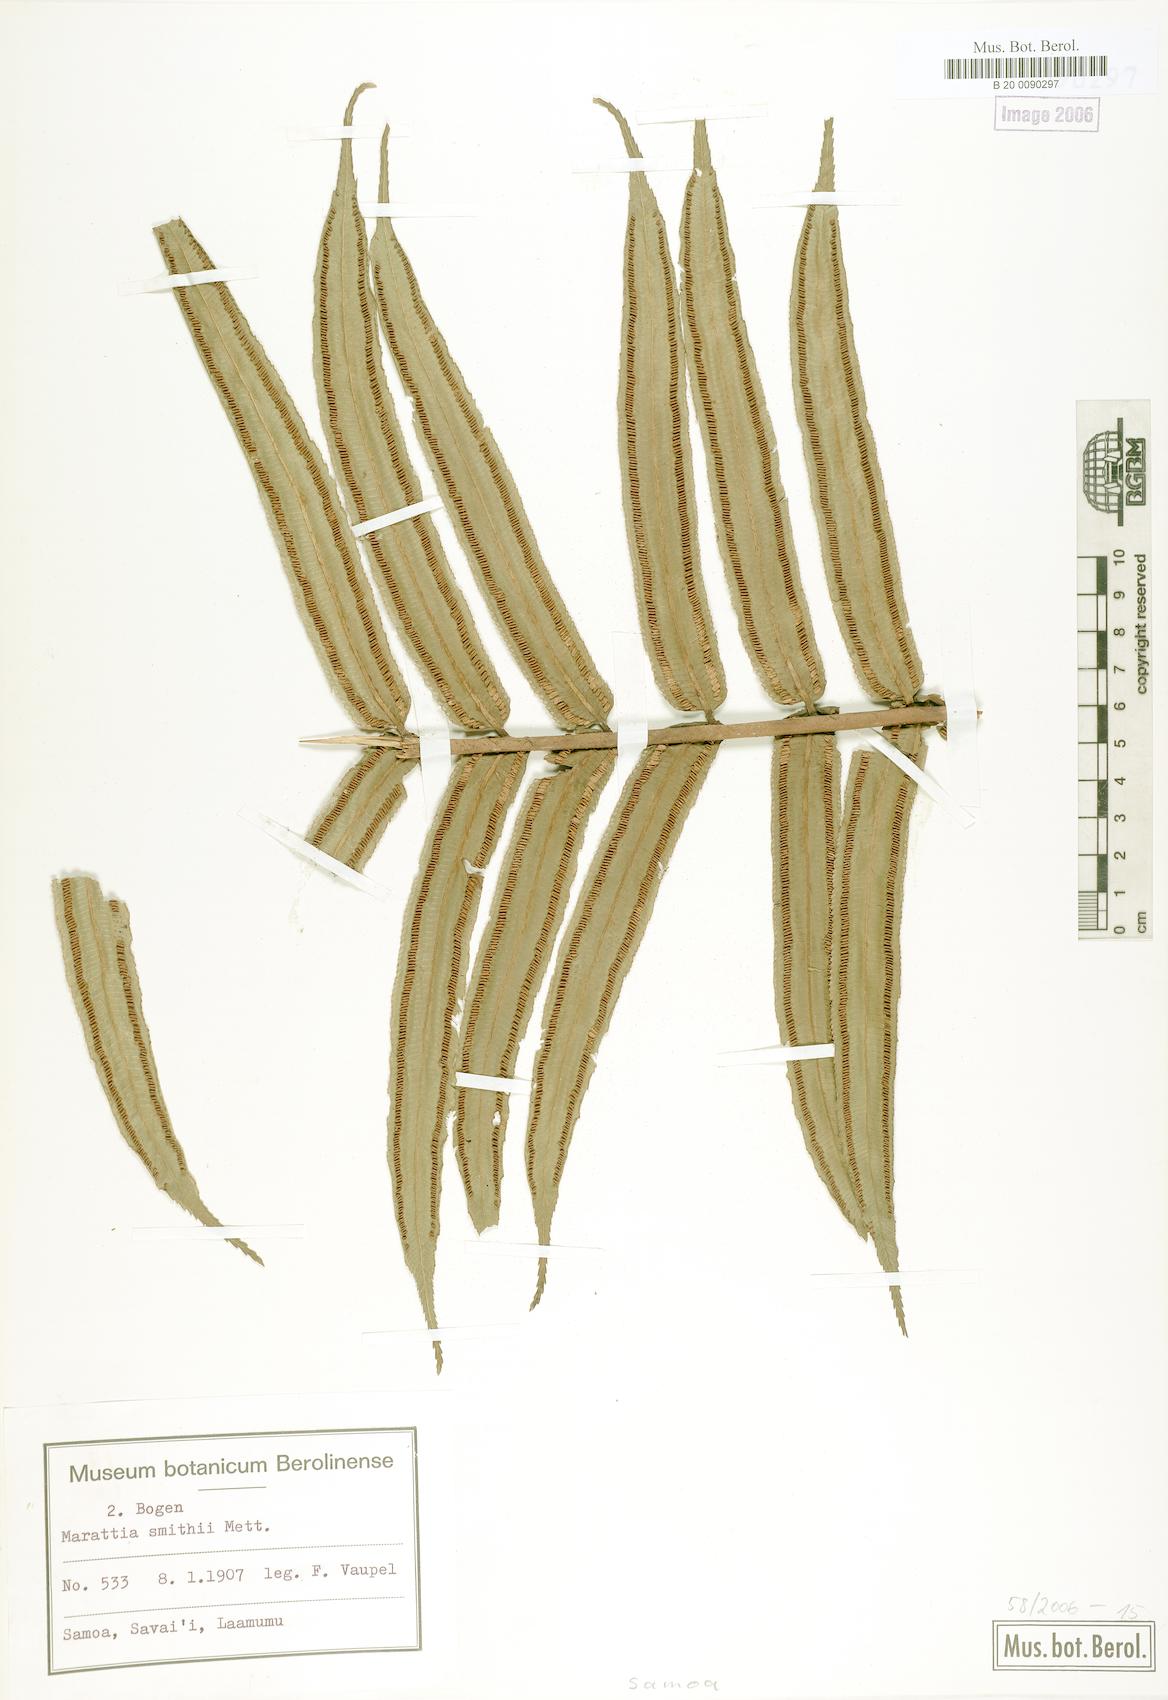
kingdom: Plantae
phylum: Tracheophyta
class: Polypodiopsida
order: Marattiales
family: Marattiaceae
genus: Ptisana
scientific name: Ptisana smithii
